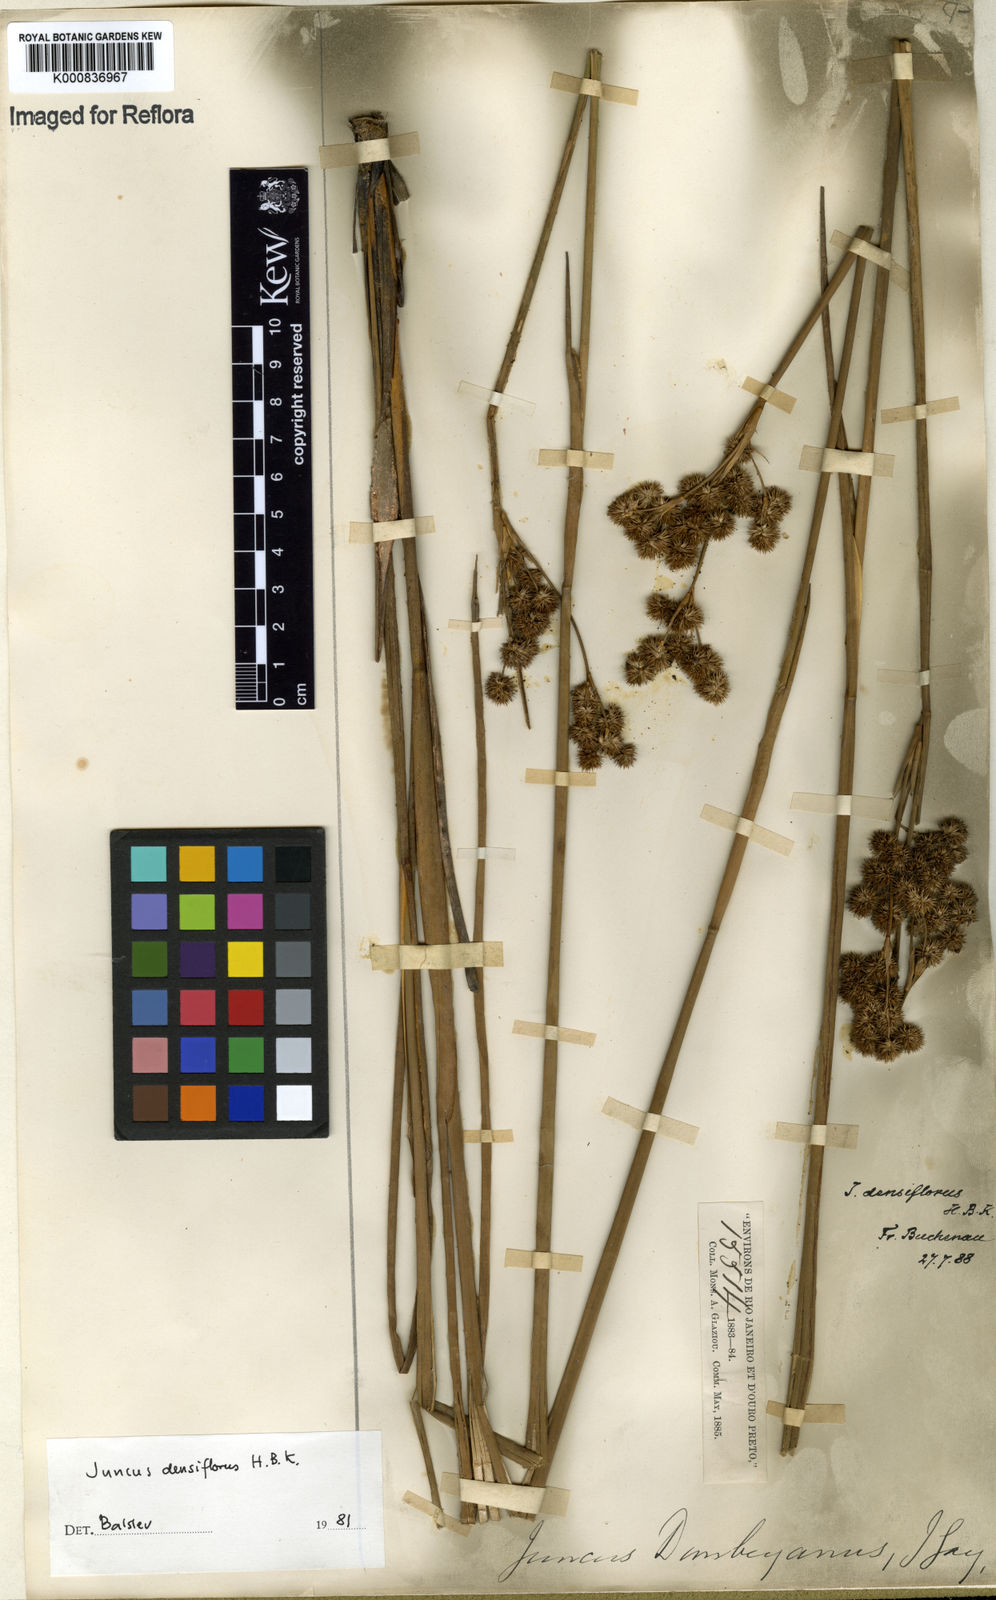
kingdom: Plantae
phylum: Tracheophyta
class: Liliopsida
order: Poales
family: Juncaceae
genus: Juncus
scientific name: Juncus densiflorus
